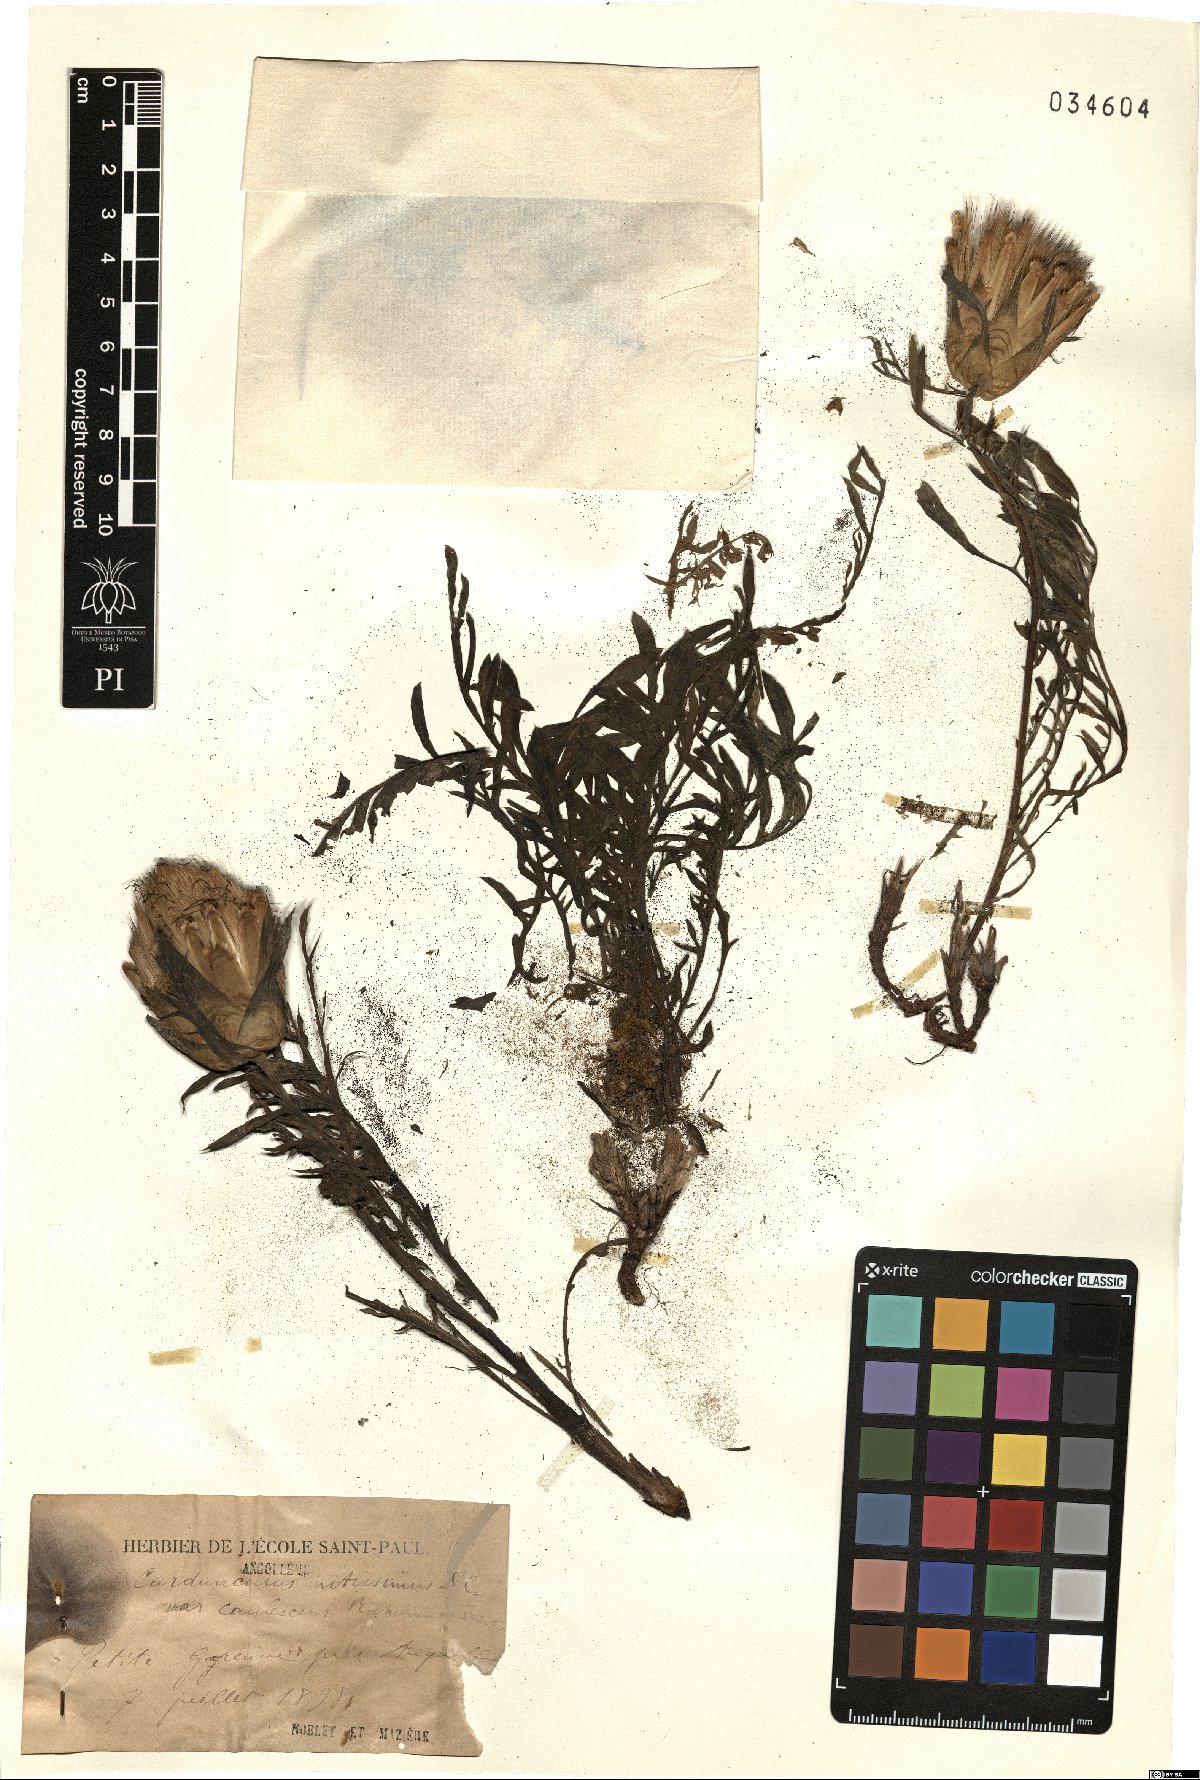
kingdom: Plantae
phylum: Tracheophyta
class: Magnoliopsida
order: Asterales
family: Asteraceae
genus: Carduncellus
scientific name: Carduncellus mitissimus
